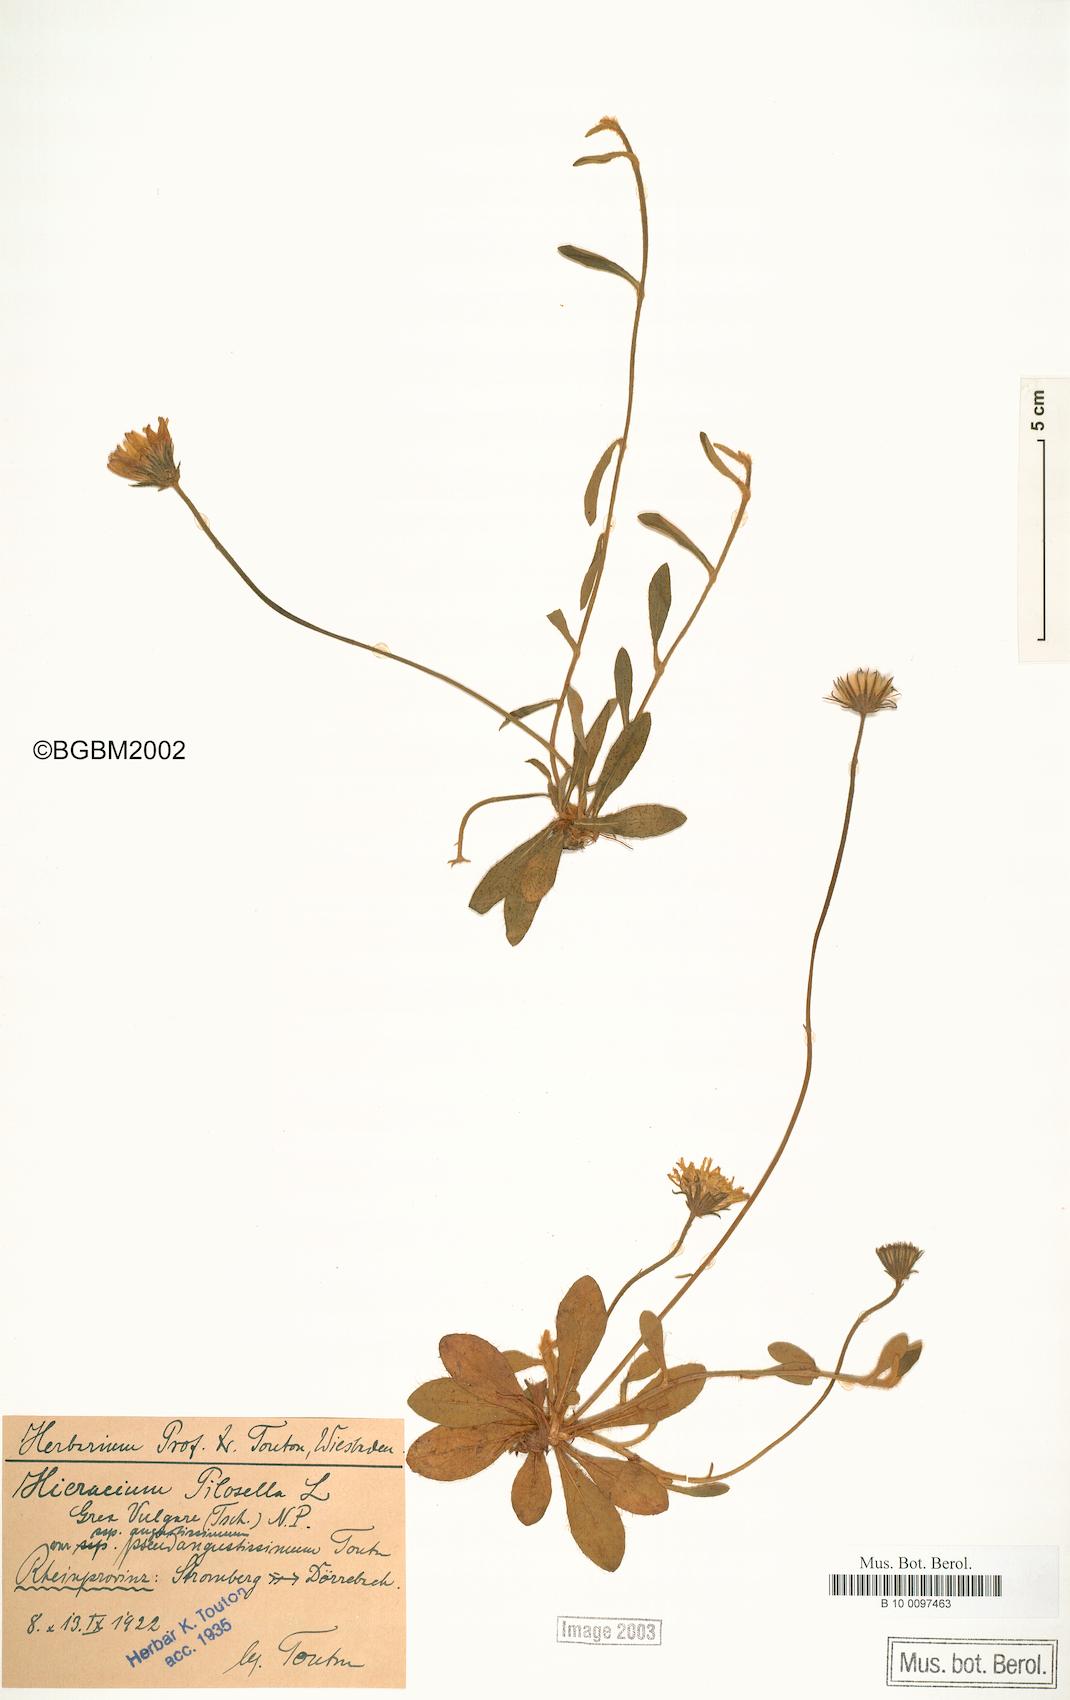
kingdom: Plantae
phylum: Tracheophyta
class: Magnoliopsida
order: Asterales
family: Asteraceae
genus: Pilosella
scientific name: Pilosella officinarum
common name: Mouse-ear hawkweed
